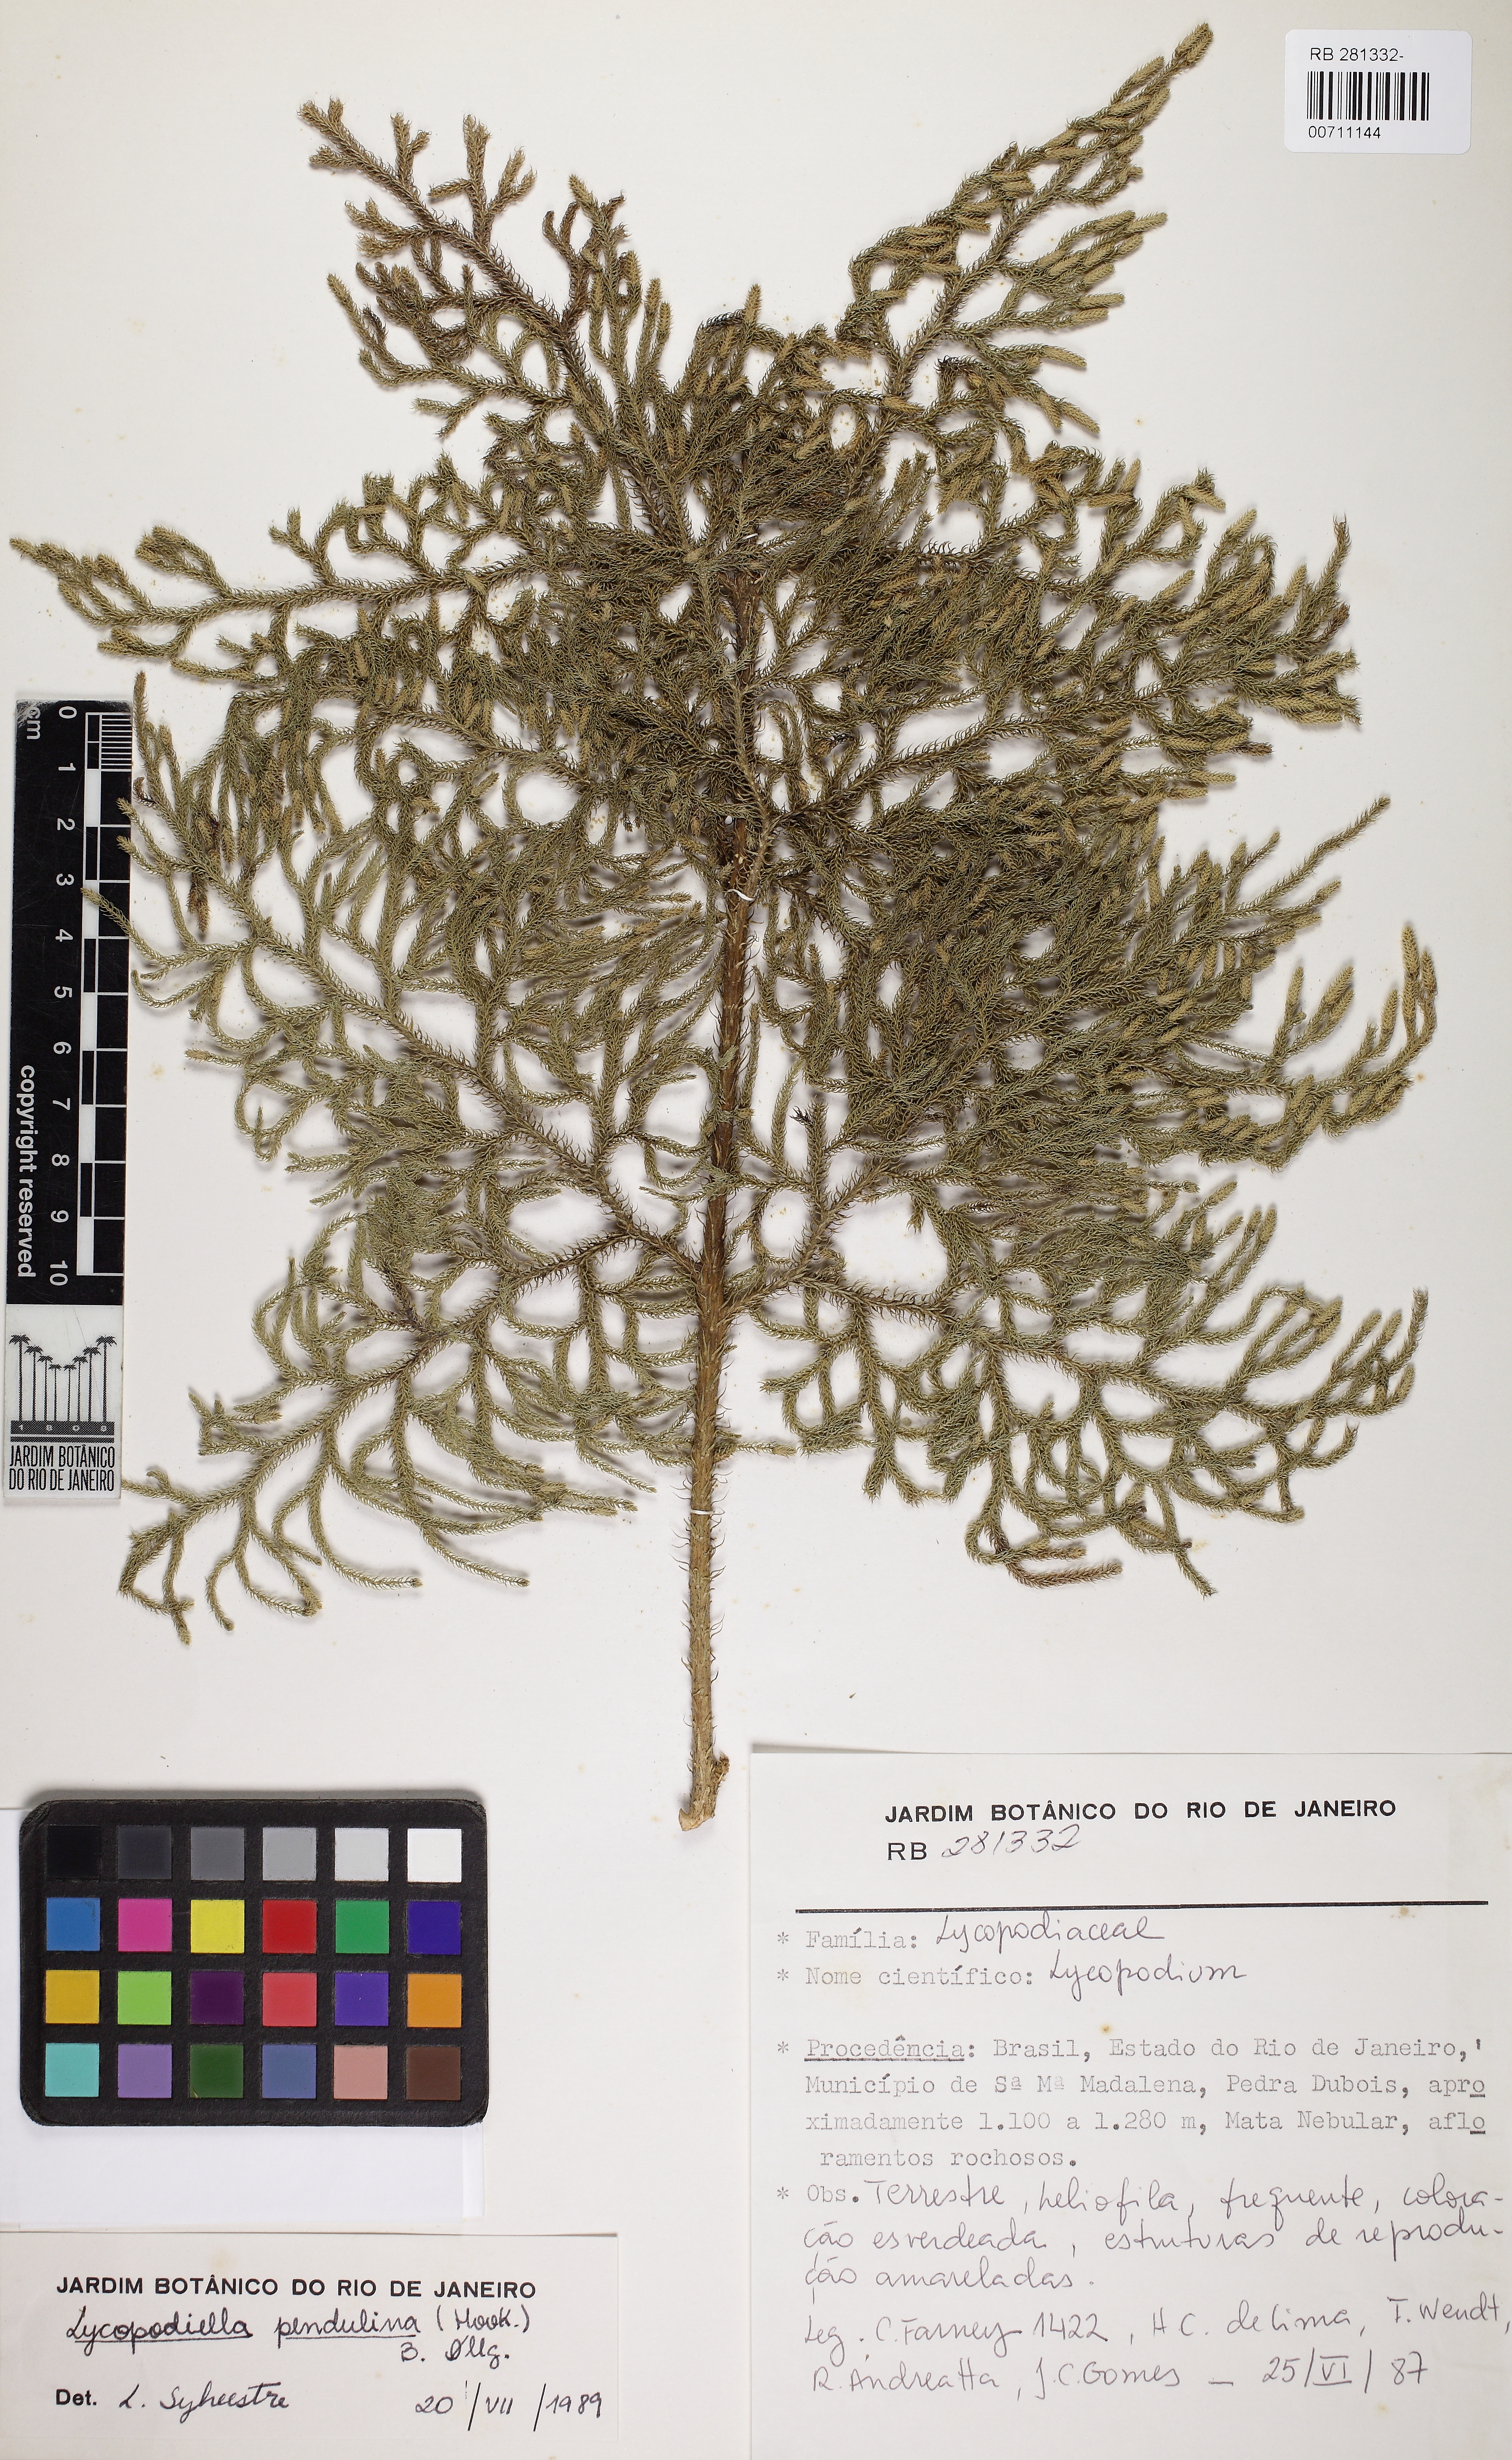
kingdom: Plantae
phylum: Tracheophyta
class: Lycopodiopsida
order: Lycopodiales
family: Lycopodiaceae
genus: Palhinhaea
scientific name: Palhinhaea pendulina
